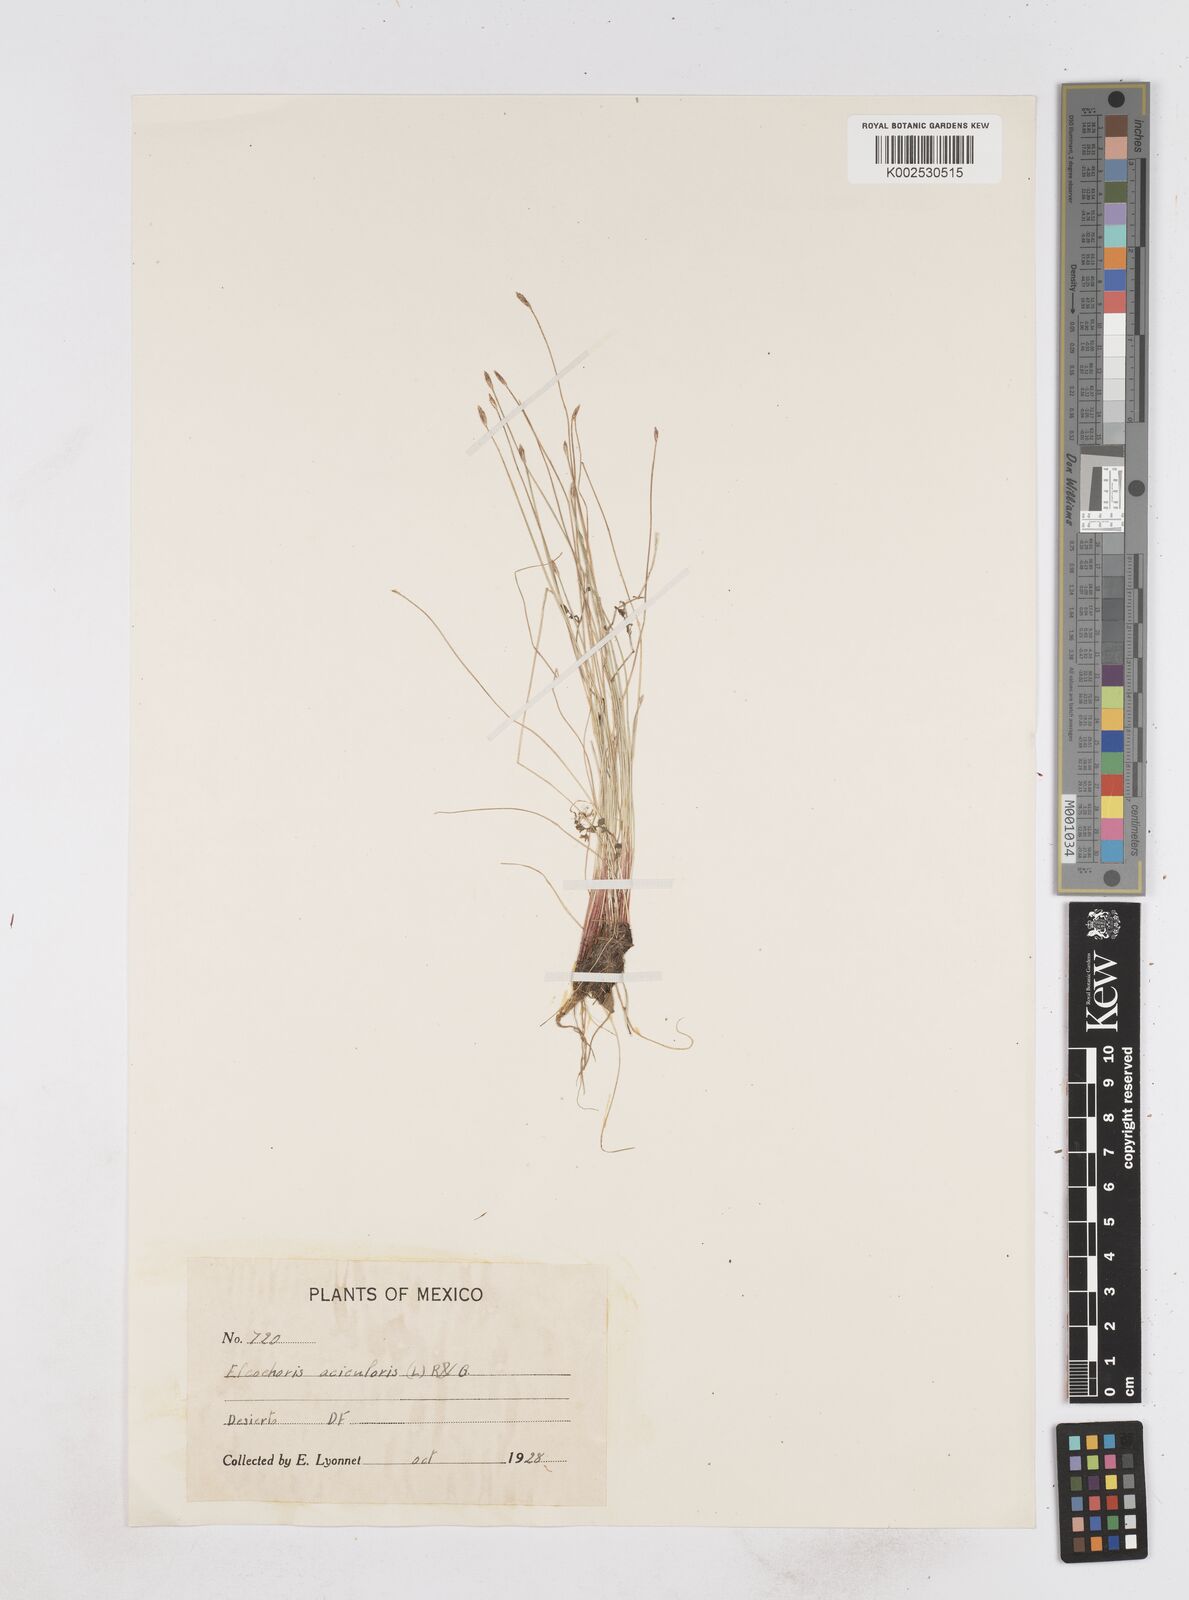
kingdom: Plantae
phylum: Tracheophyta
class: Liliopsida
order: Poales
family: Cyperaceae
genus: Eleocharis
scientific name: Eleocharis acicularis
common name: Needle spike-rush
